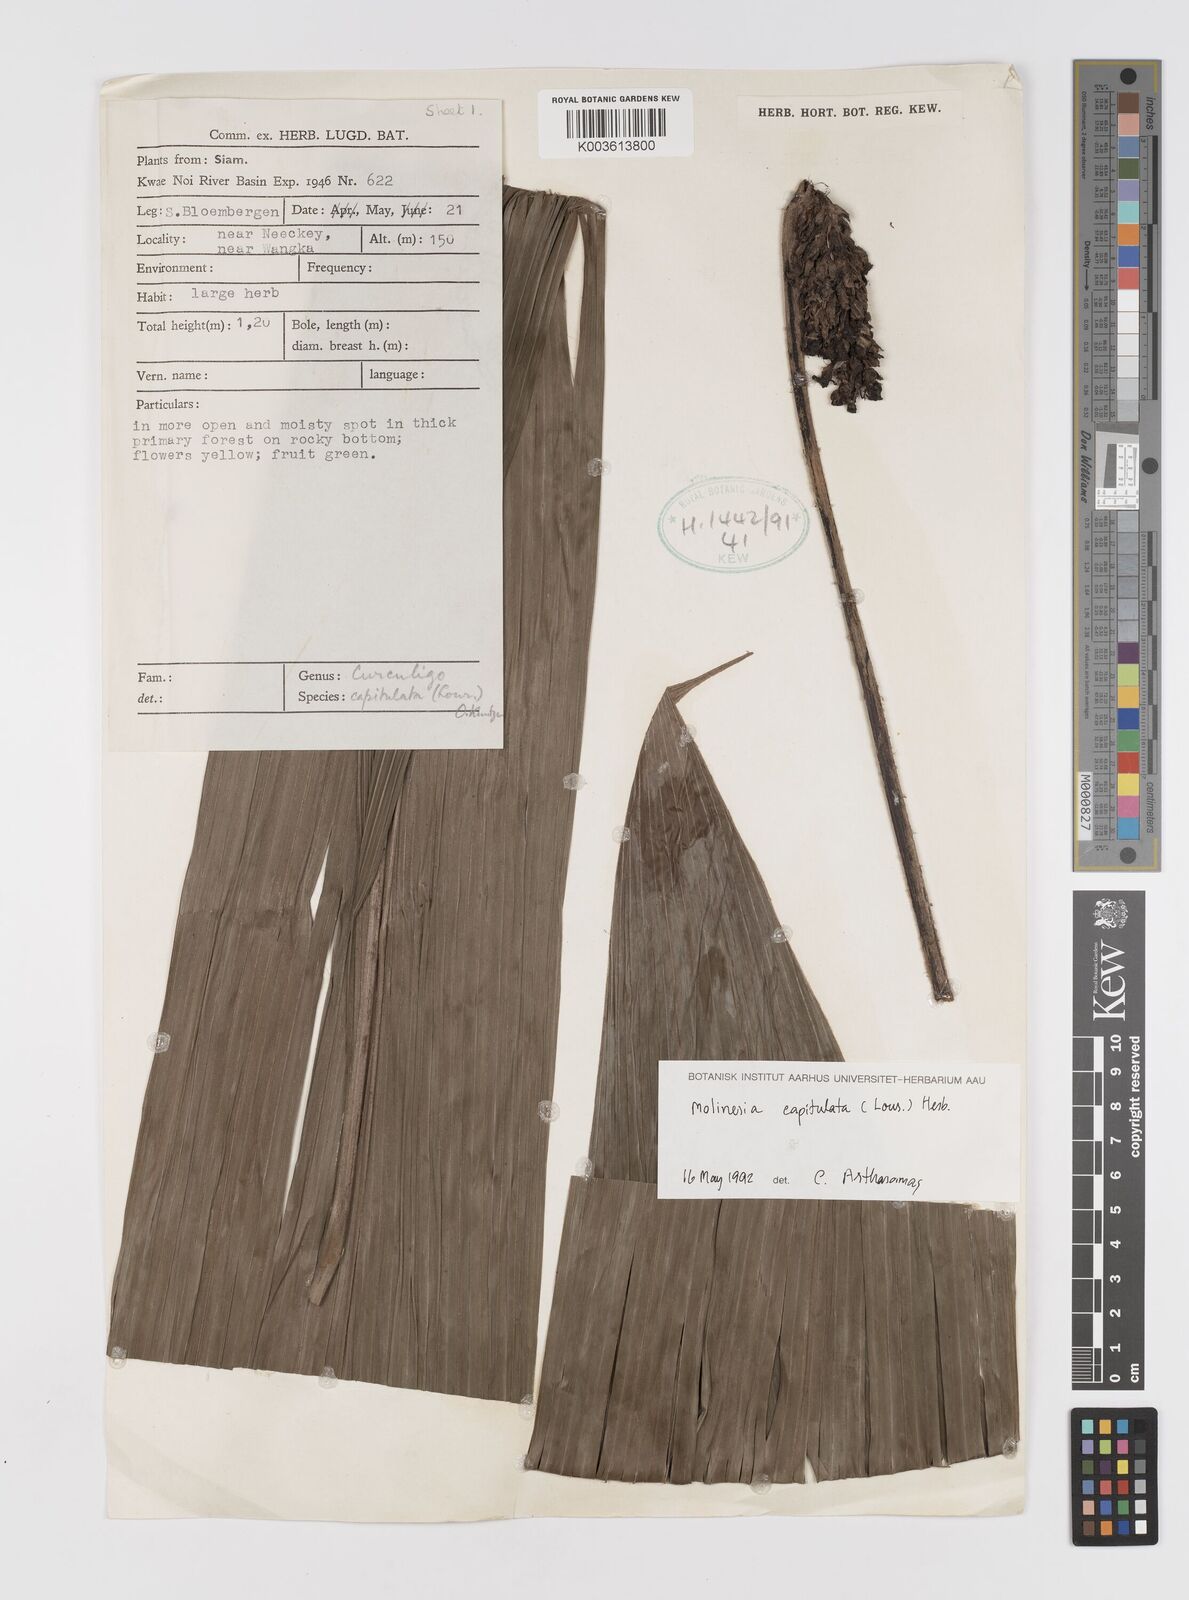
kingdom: Plantae
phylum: Tracheophyta
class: Liliopsida
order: Asparagales
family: Hypoxidaceae
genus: Curculigo
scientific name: Curculigo capitulata
